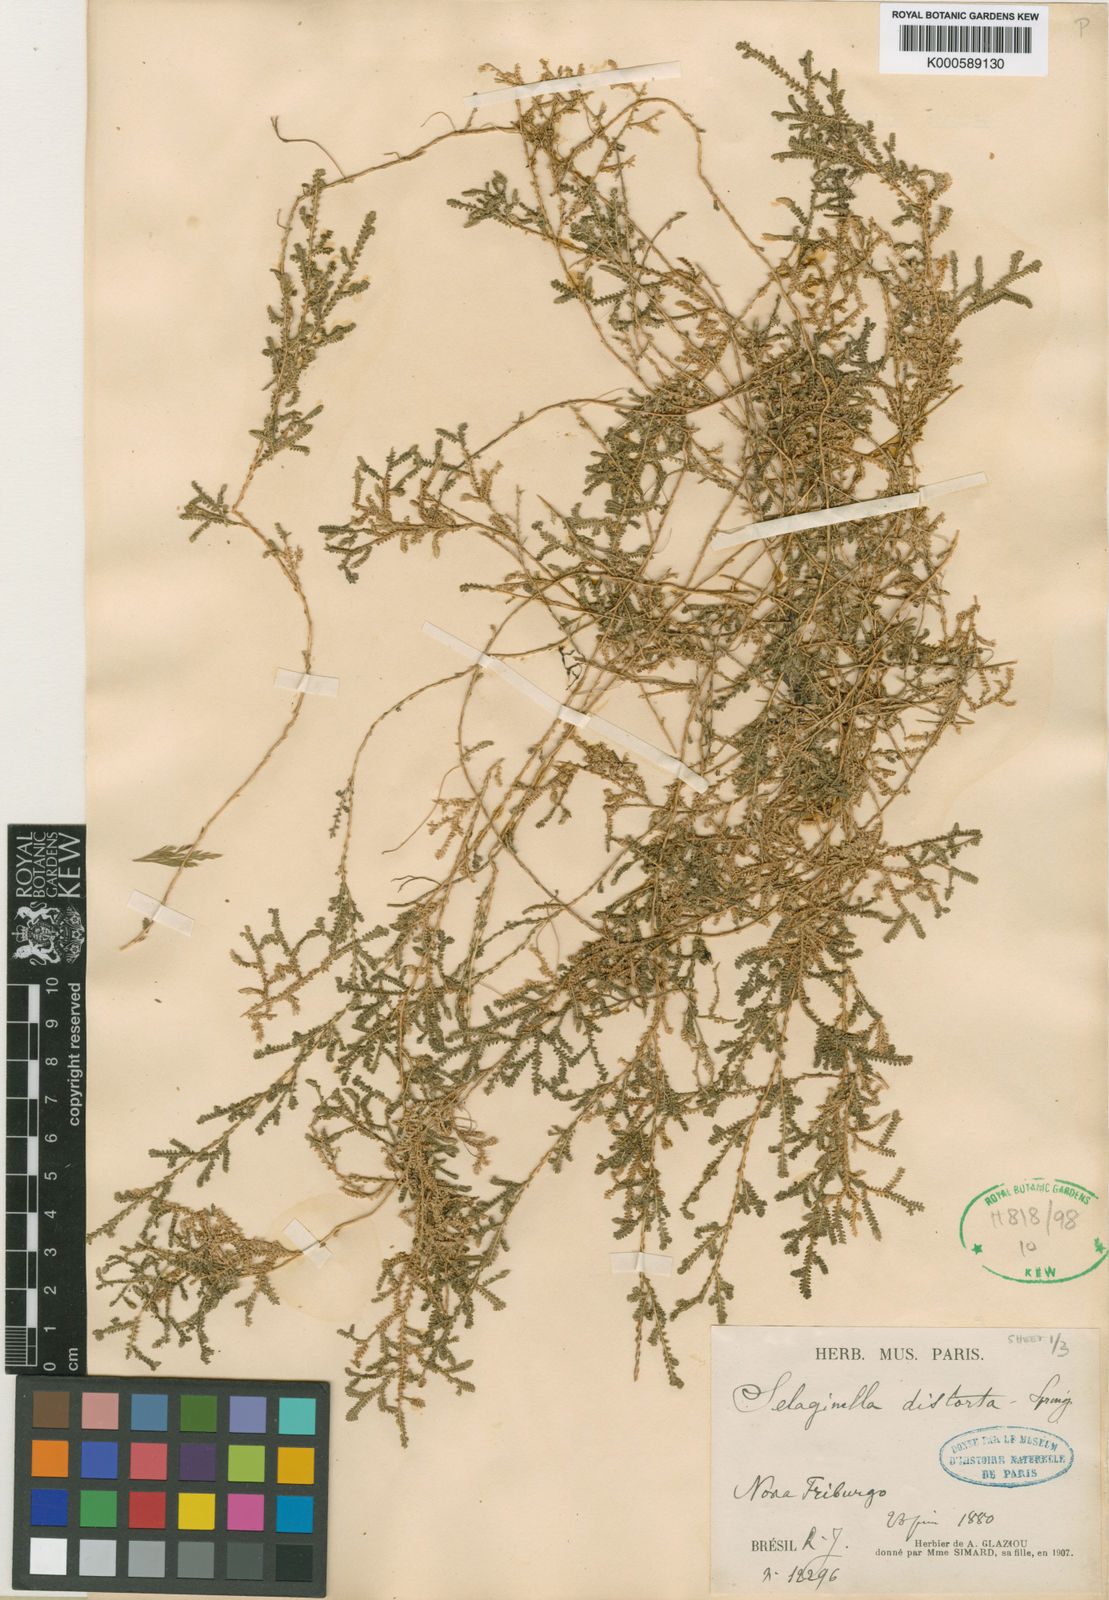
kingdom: Plantae
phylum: Tracheophyta
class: Lycopodiopsida
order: Selaginellales
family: Selaginellaceae
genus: Selaginella
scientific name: Selaginella marginata
